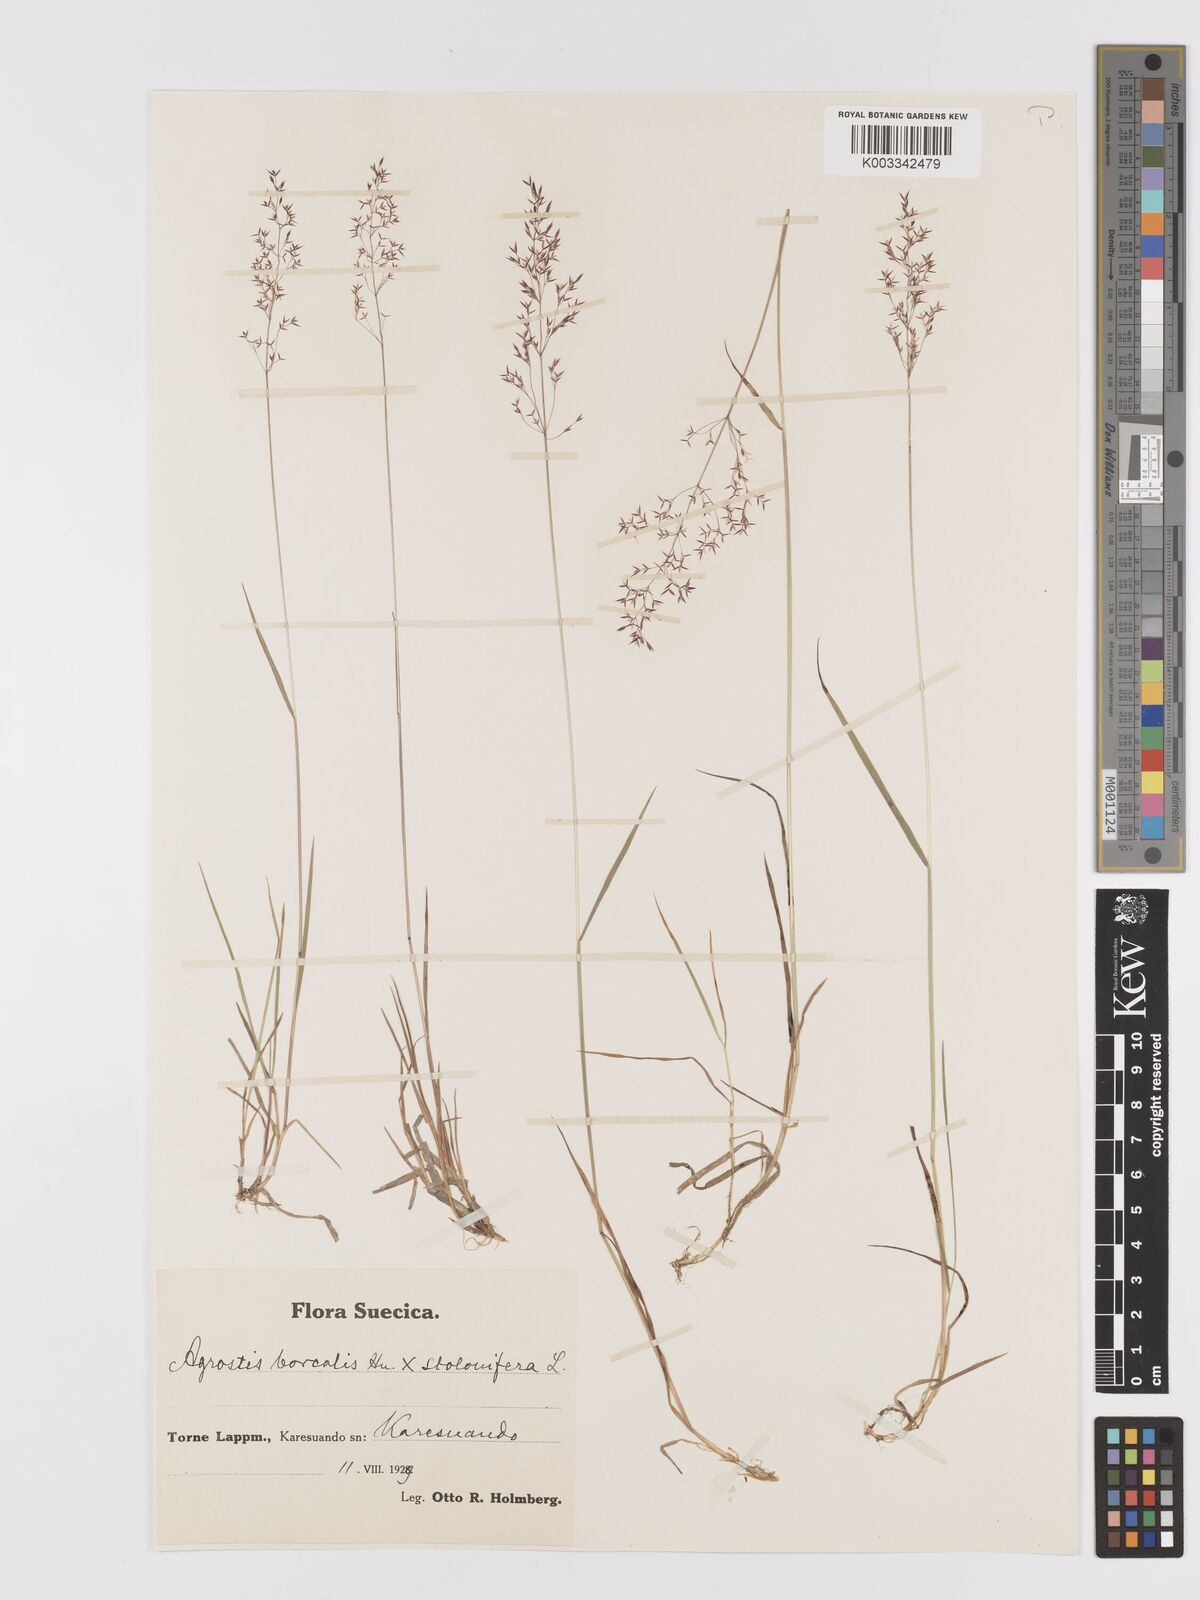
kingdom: Plantae
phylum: Tracheophyta
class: Liliopsida
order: Poales
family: Poaceae
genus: Agrostis
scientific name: Agrostis mertensii
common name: Northern bent
